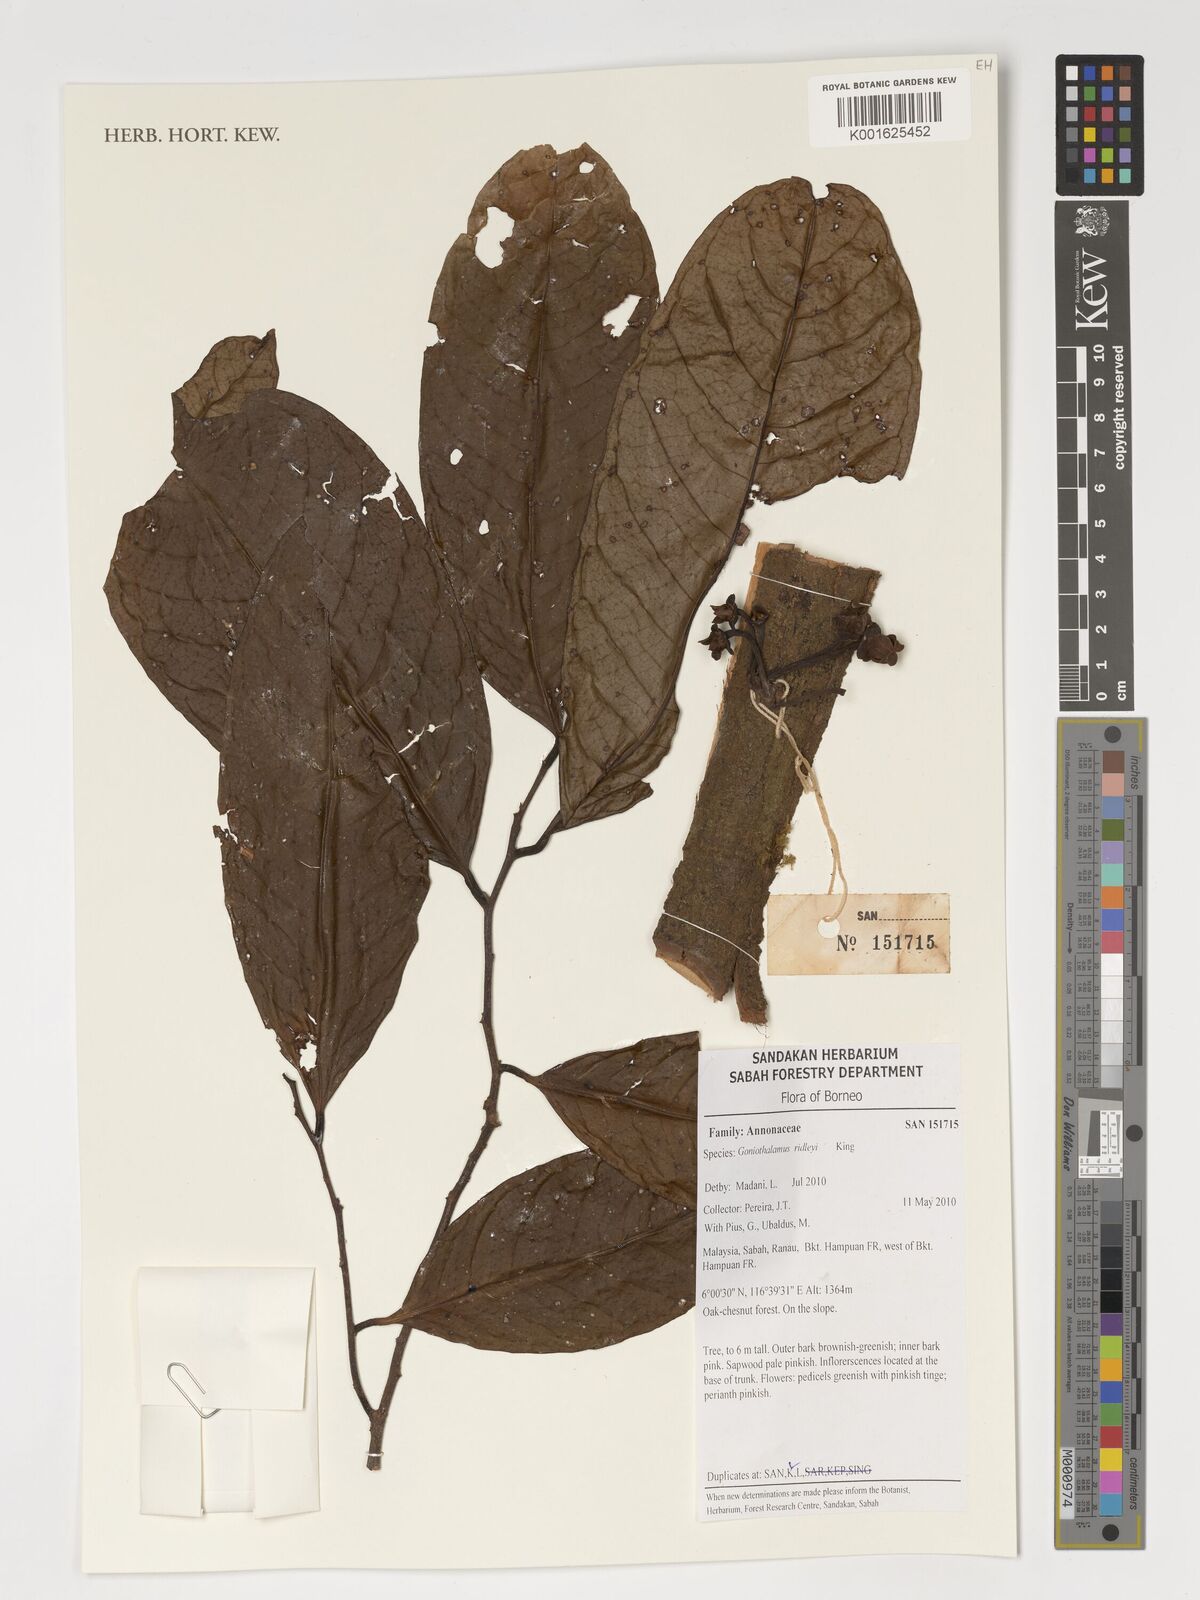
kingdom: Plantae
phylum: Tracheophyta
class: Magnoliopsida
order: Magnoliales
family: Annonaceae
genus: Goniothalamus
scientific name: Goniothalamus ridleyi
